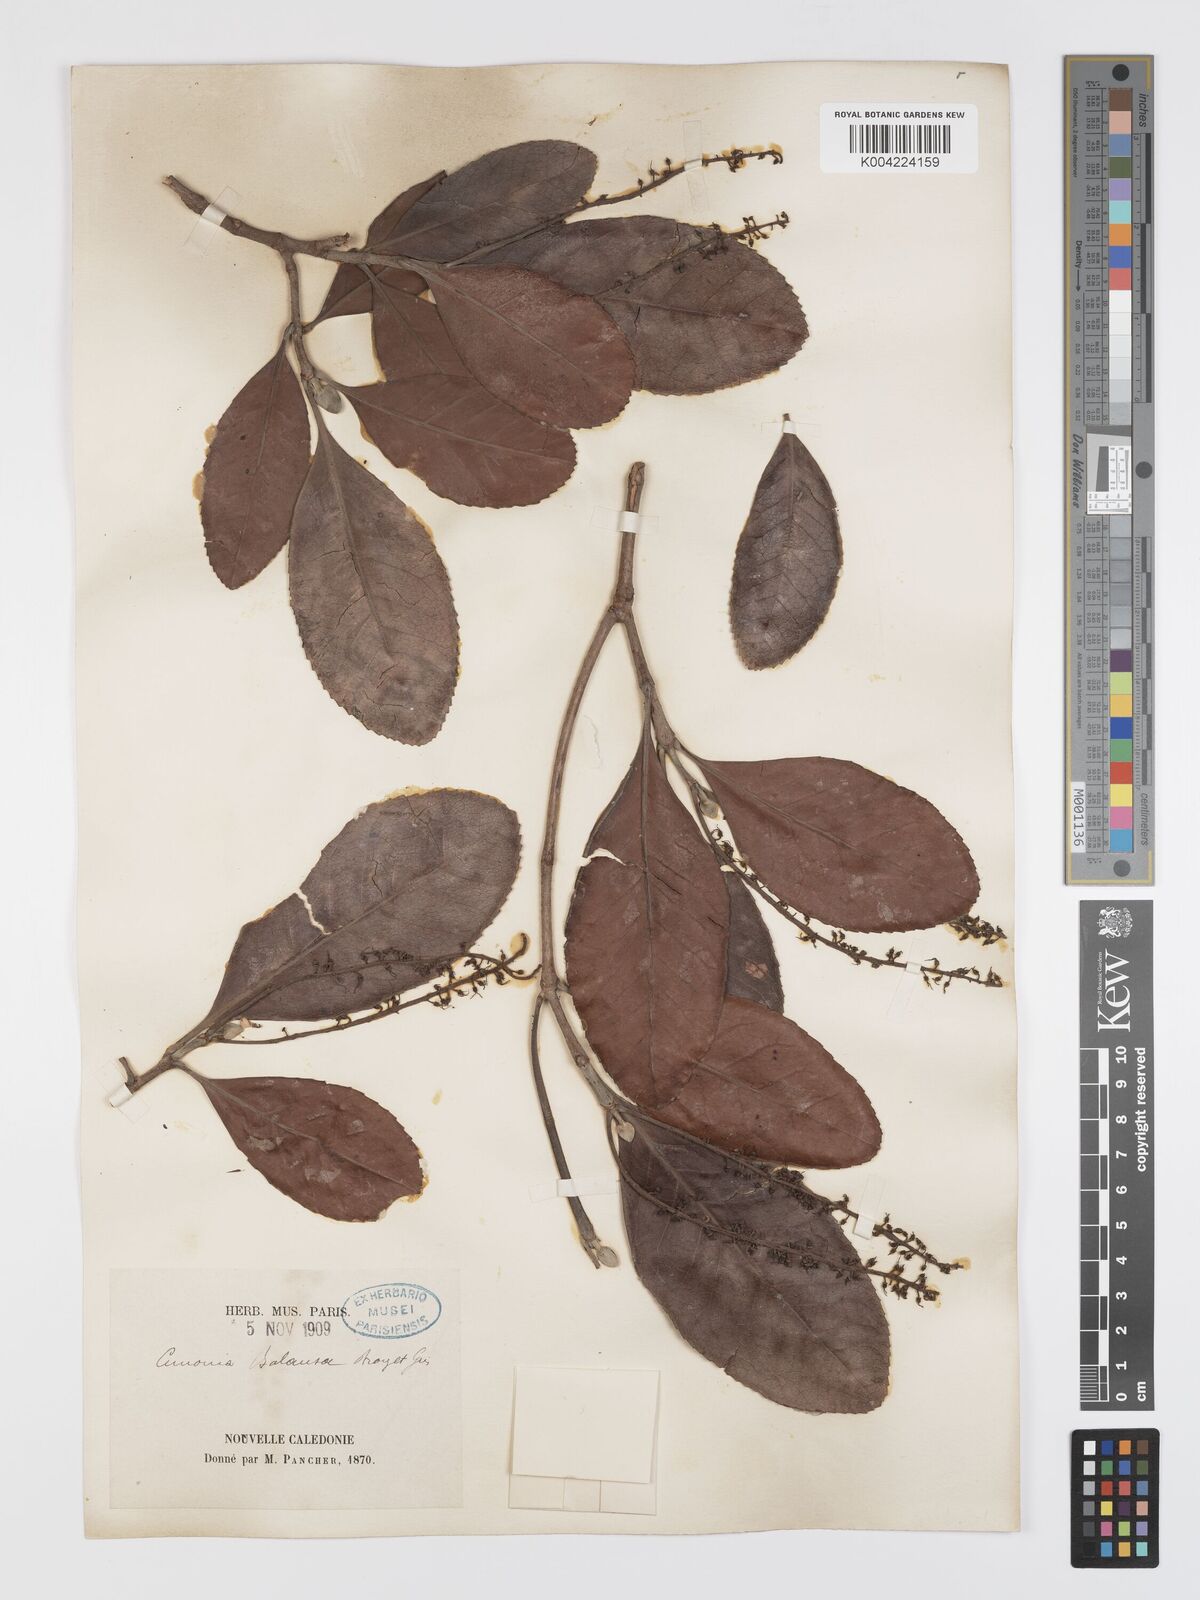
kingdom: Plantae
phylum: Tracheophyta
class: Magnoliopsida
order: Oxalidales
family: Cunoniaceae
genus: Cunonia
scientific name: Cunonia balansae
